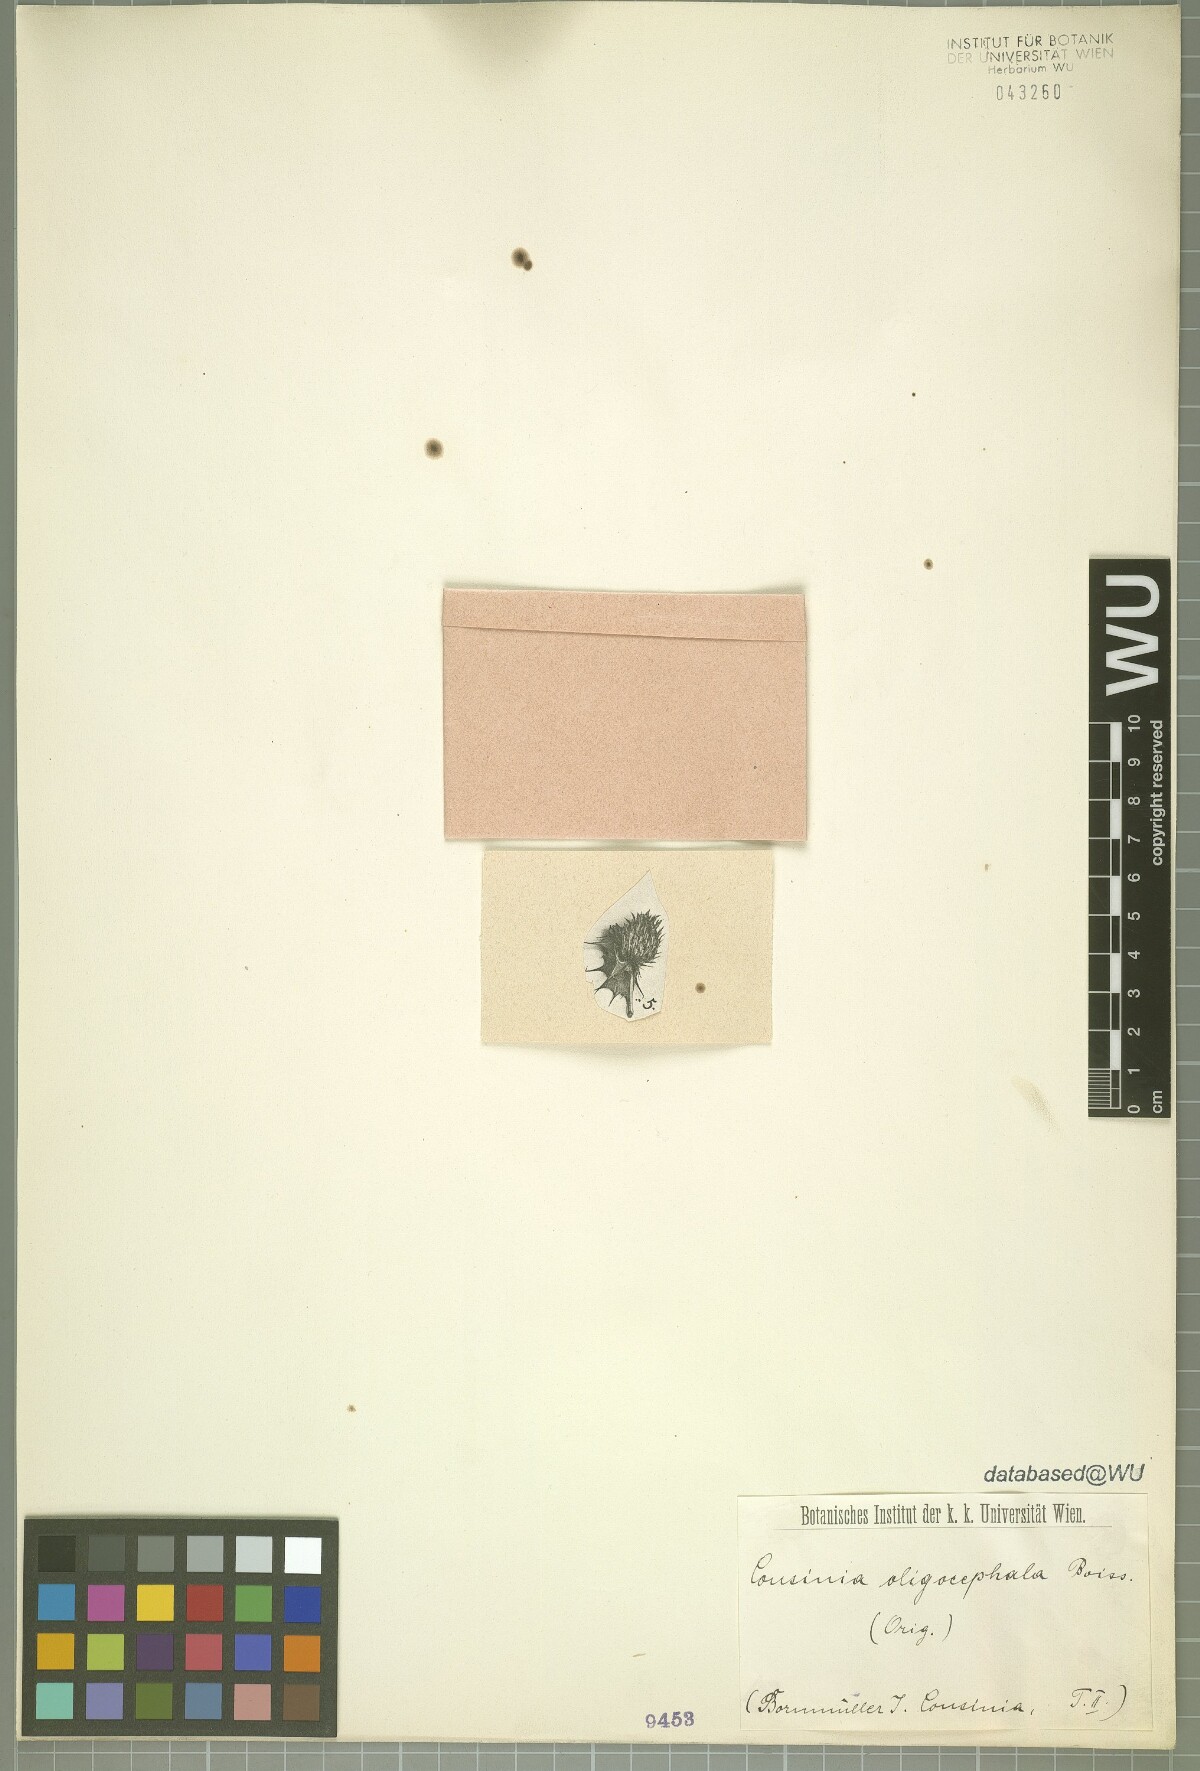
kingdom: Plantae
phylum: Tracheophyta
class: Magnoliopsida
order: Asterales
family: Asteraceae
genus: Cousinia
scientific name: Cousinia oligocephala
